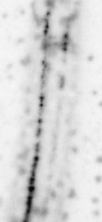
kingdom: Animalia
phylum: Chordata
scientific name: Chordata
